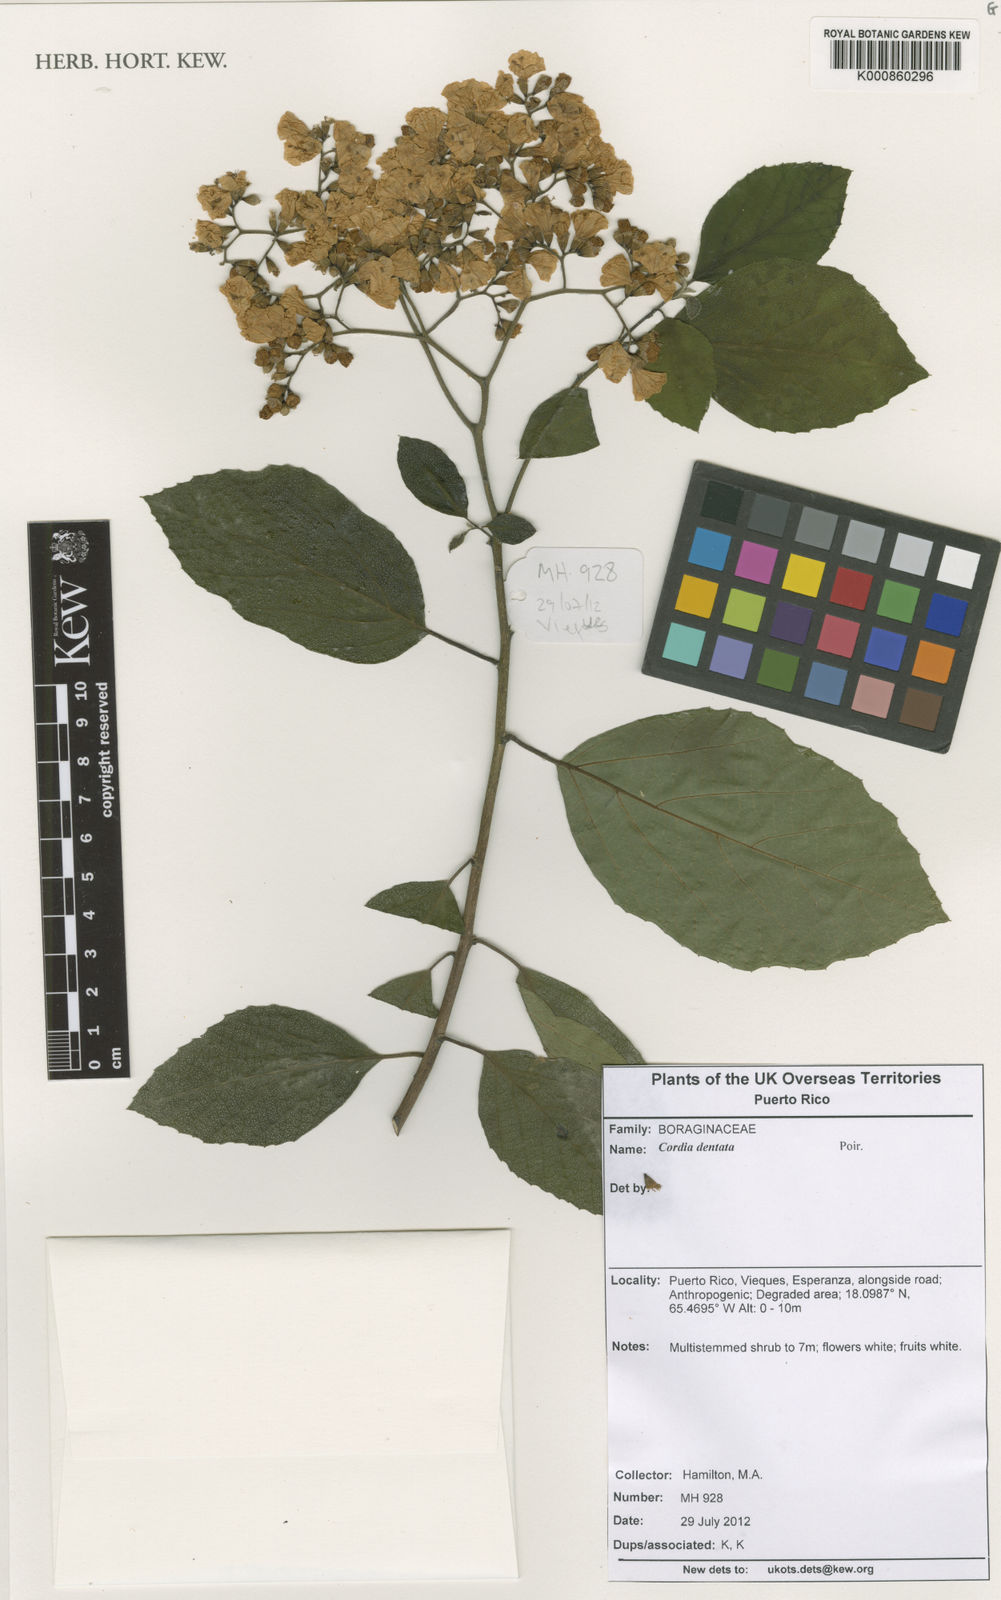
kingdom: Plantae
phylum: Tracheophyta
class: Magnoliopsida
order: Boraginales
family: Cordiaceae
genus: Cordia
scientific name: Cordia dentata
